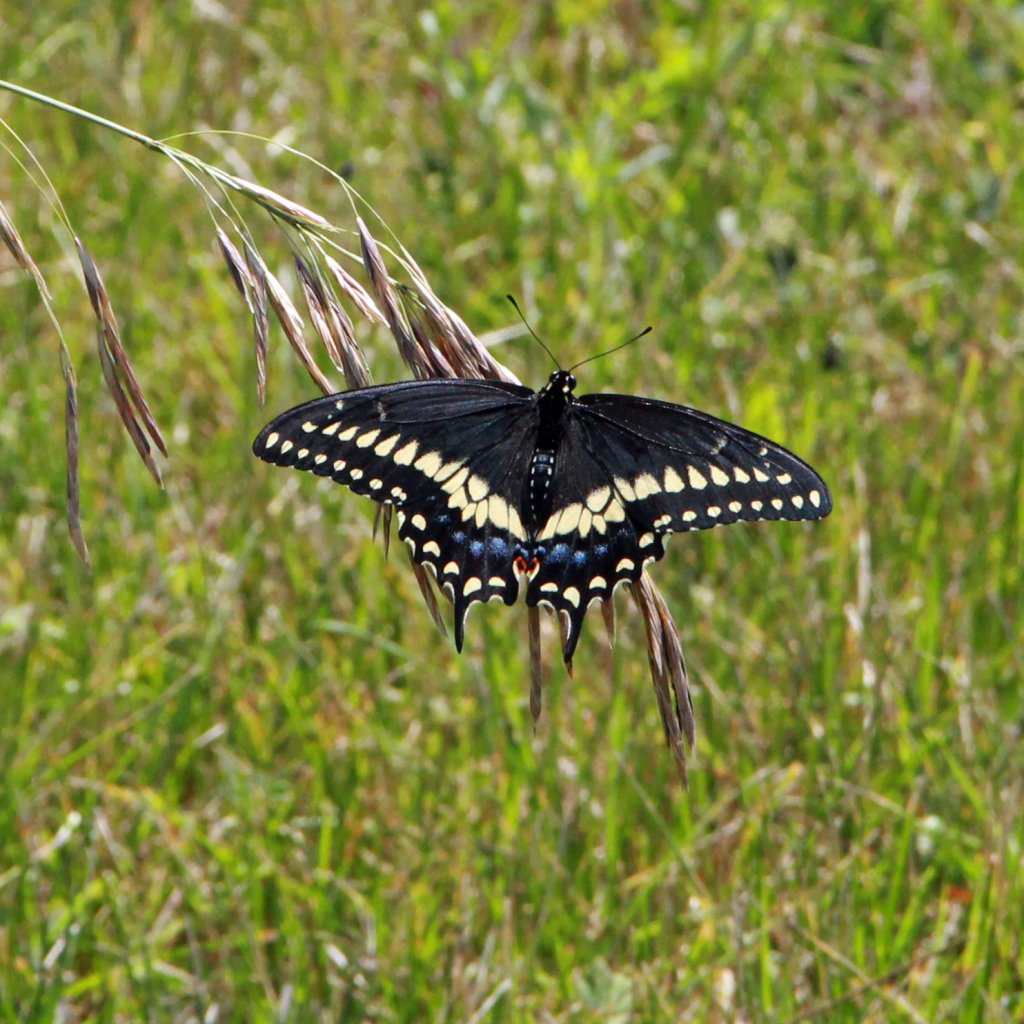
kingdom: Animalia
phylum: Arthropoda
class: Insecta
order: Lepidoptera
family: Papilionidae
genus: Papilio
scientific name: Papilio polyxenes
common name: Black Swallowtail
